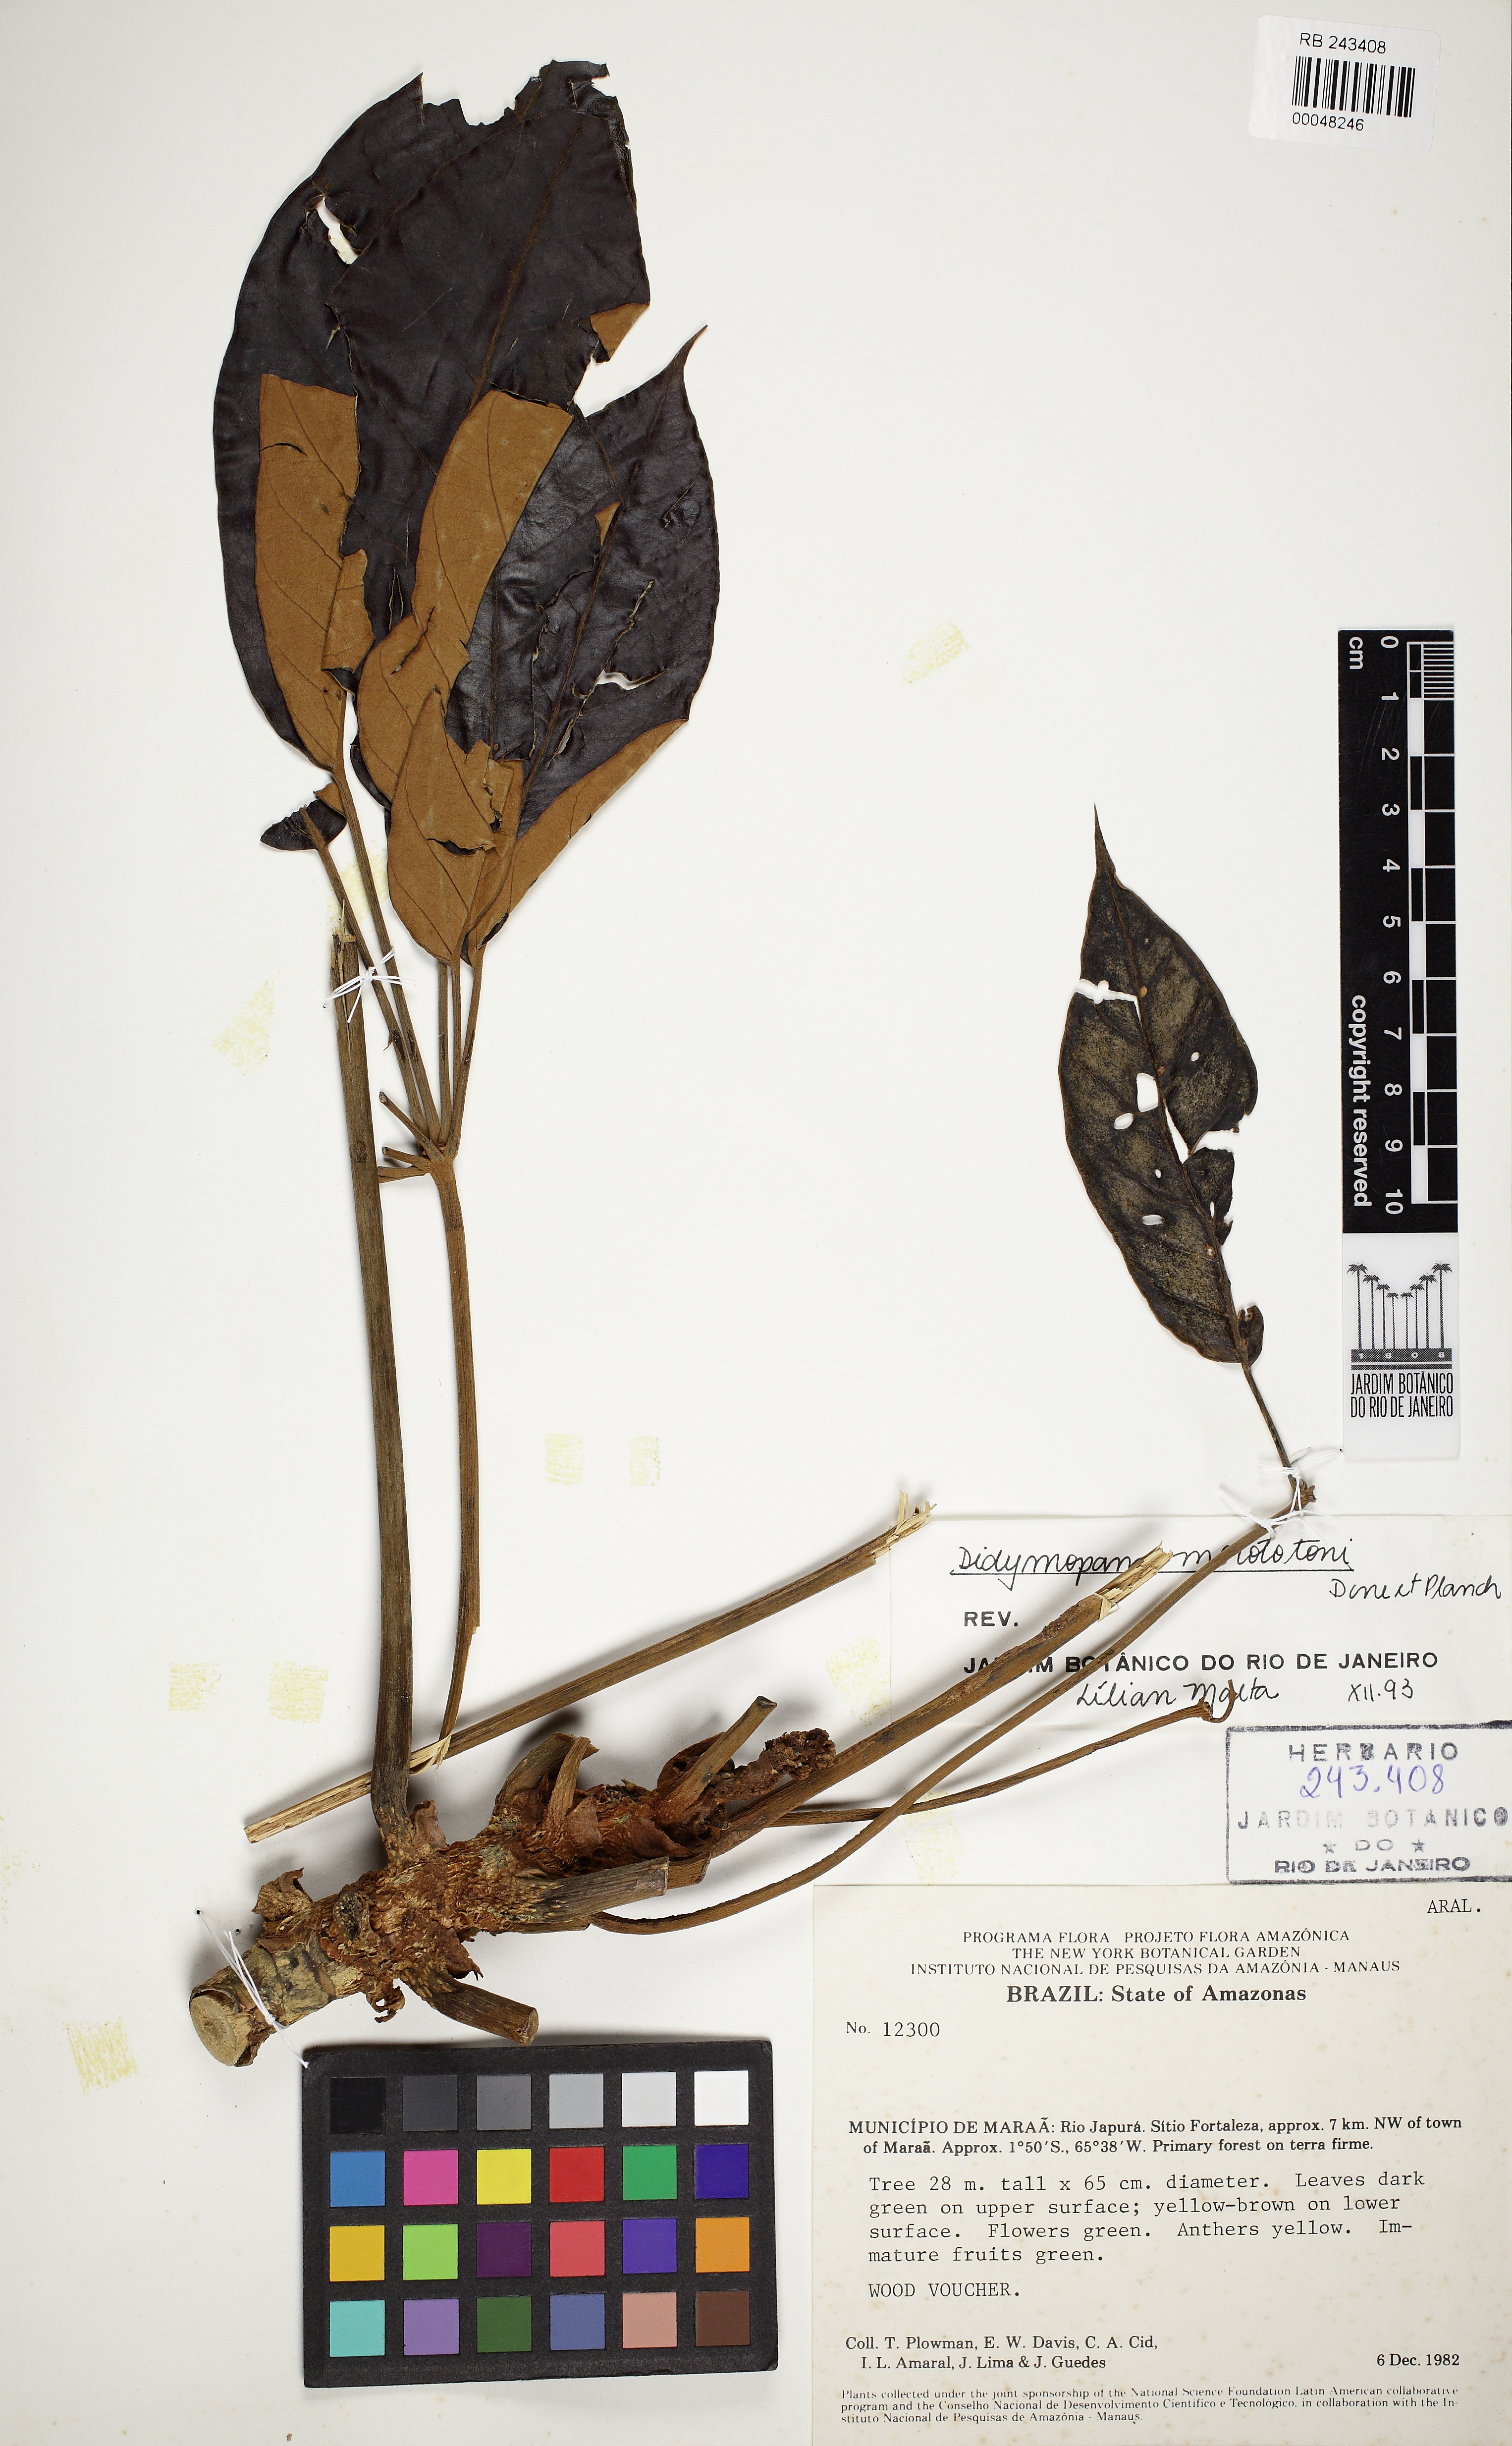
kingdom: Plantae
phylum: Tracheophyta
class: Magnoliopsida
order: Apiales
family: Araliaceae
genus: Didymopanax
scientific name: Didymopanax morototoni
